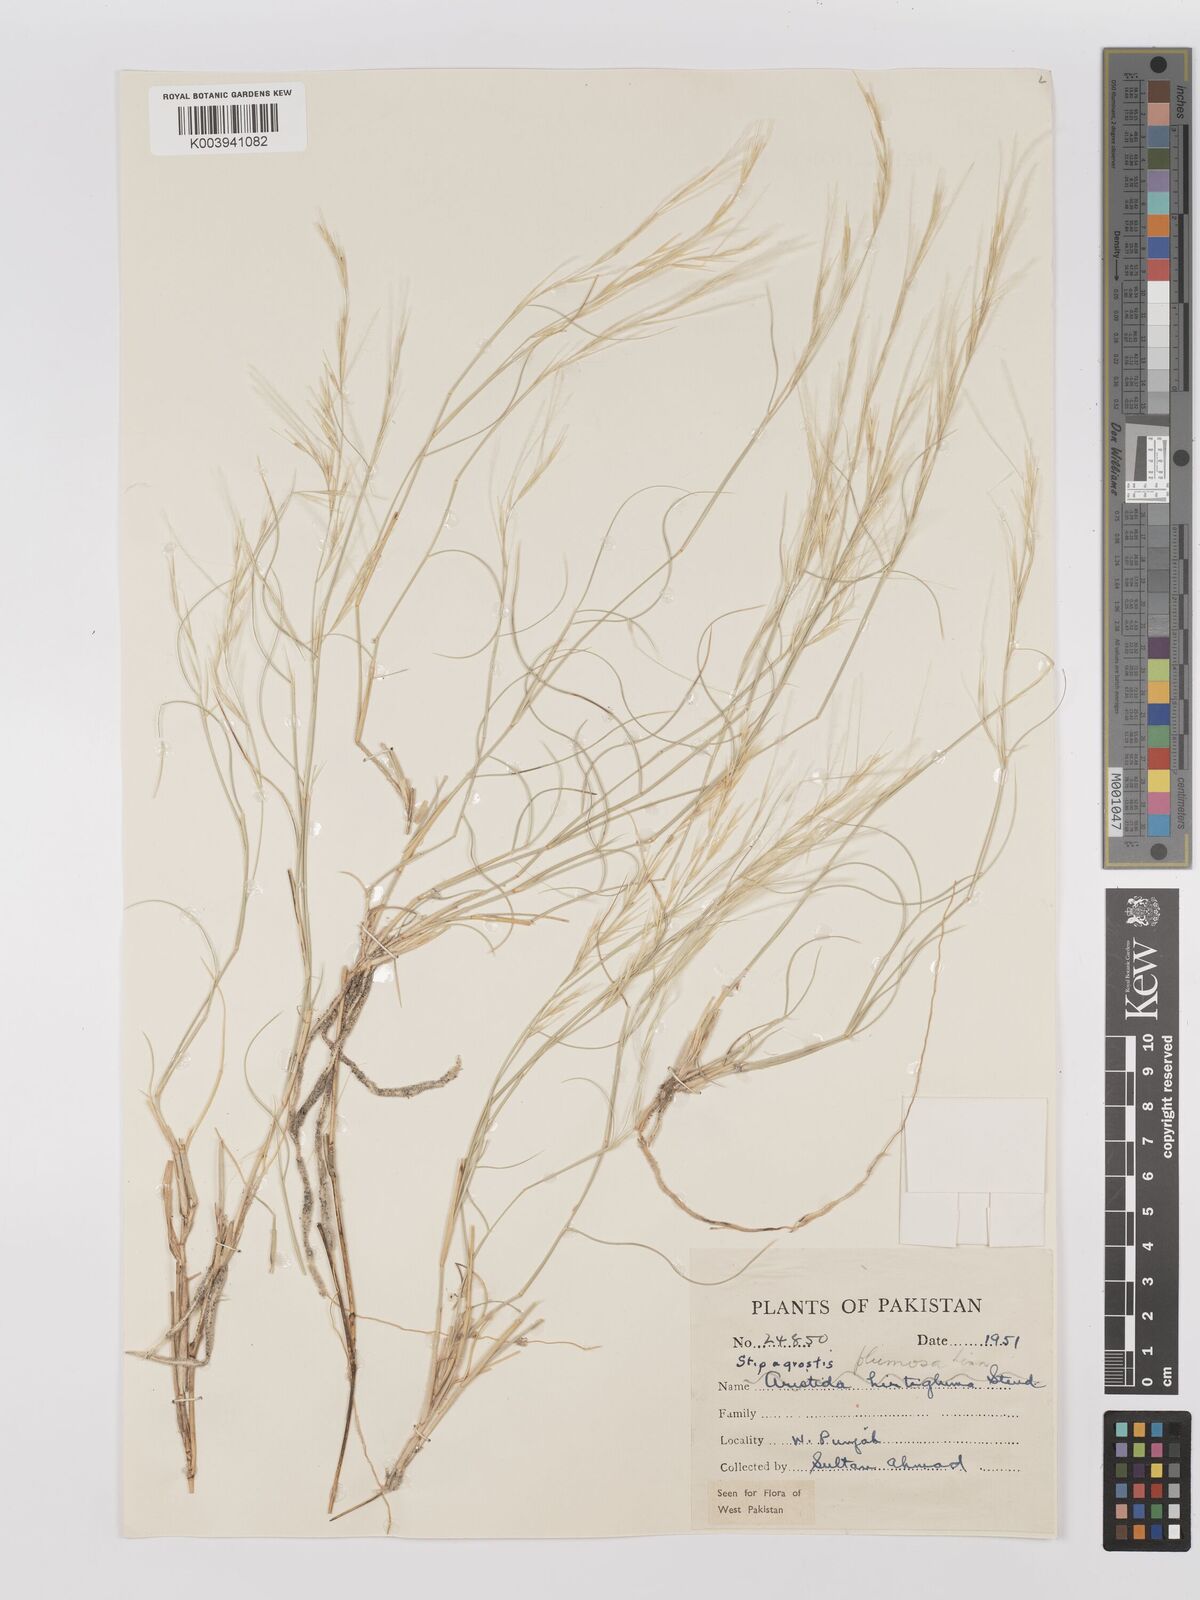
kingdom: Plantae
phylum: Tracheophyta
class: Liliopsida
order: Poales
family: Poaceae
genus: Stipagrostis
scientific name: Stipagrostis plumosa
